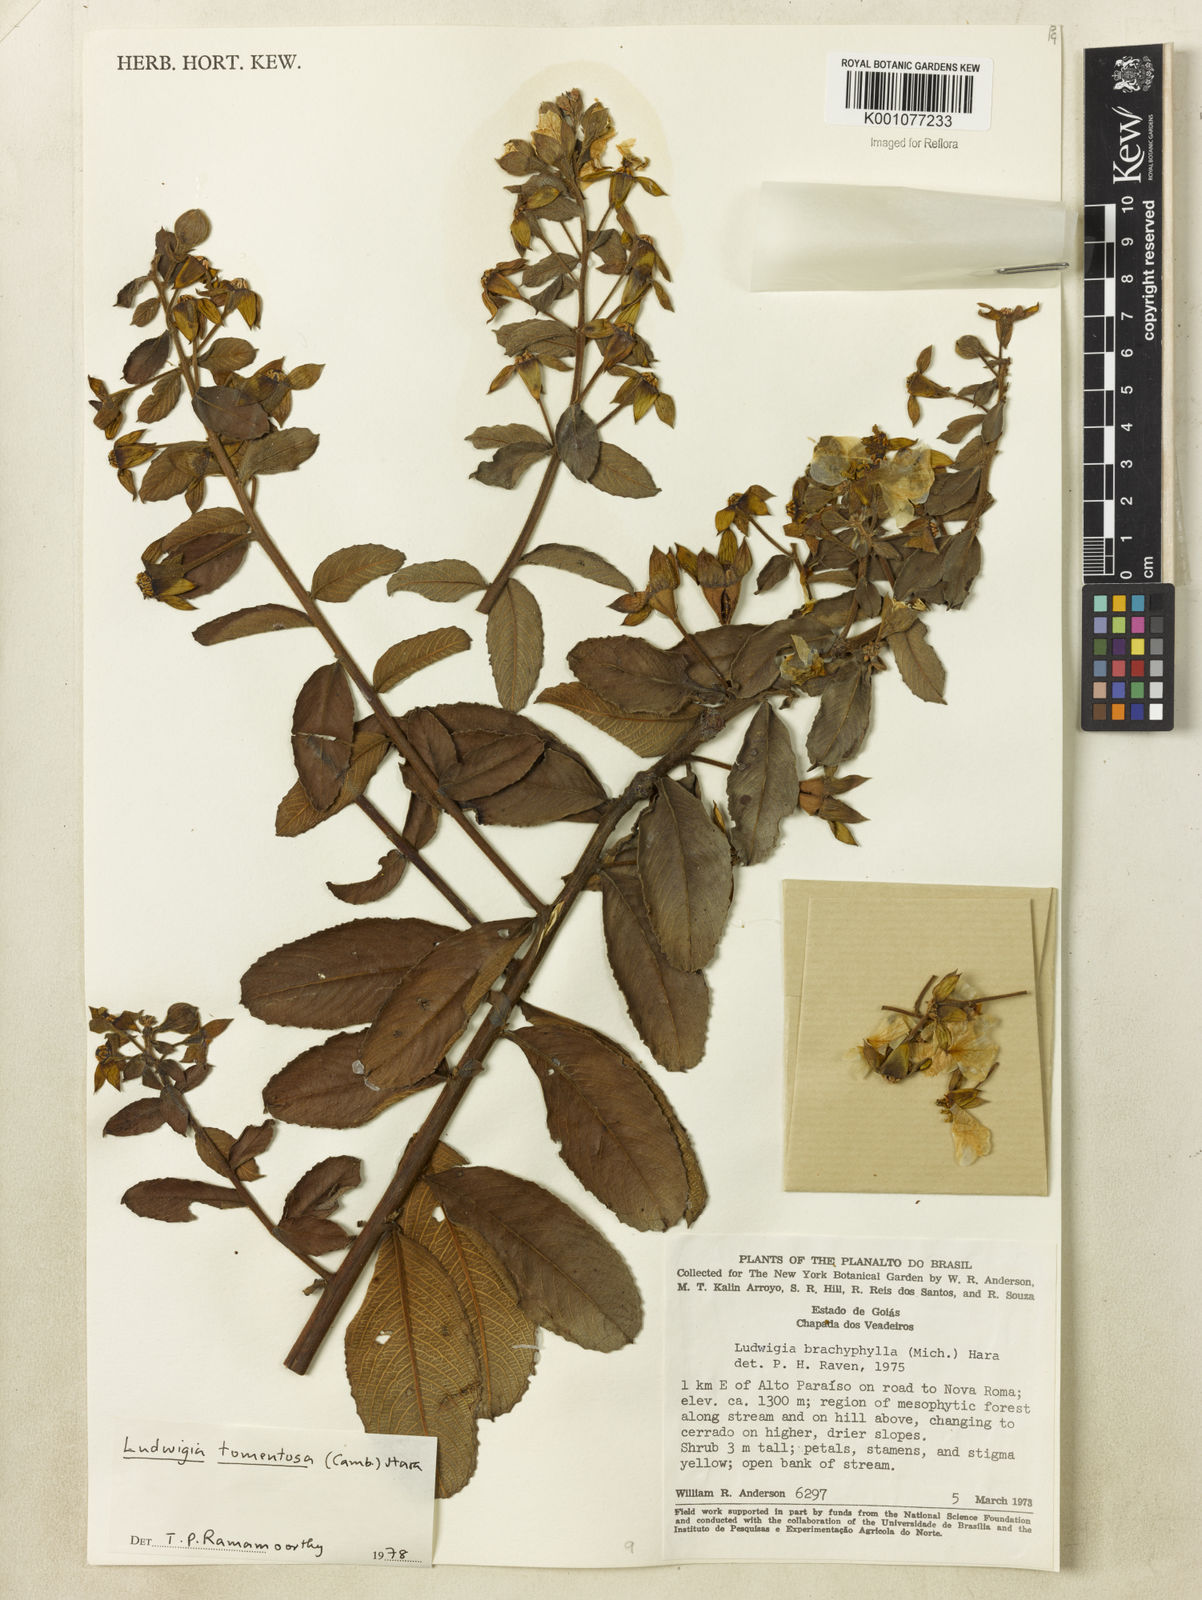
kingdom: Plantae
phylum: Tracheophyta
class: Magnoliopsida
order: Myrtales
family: Onagraceae
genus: Ludwigia
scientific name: Ludwigia tomentosa
